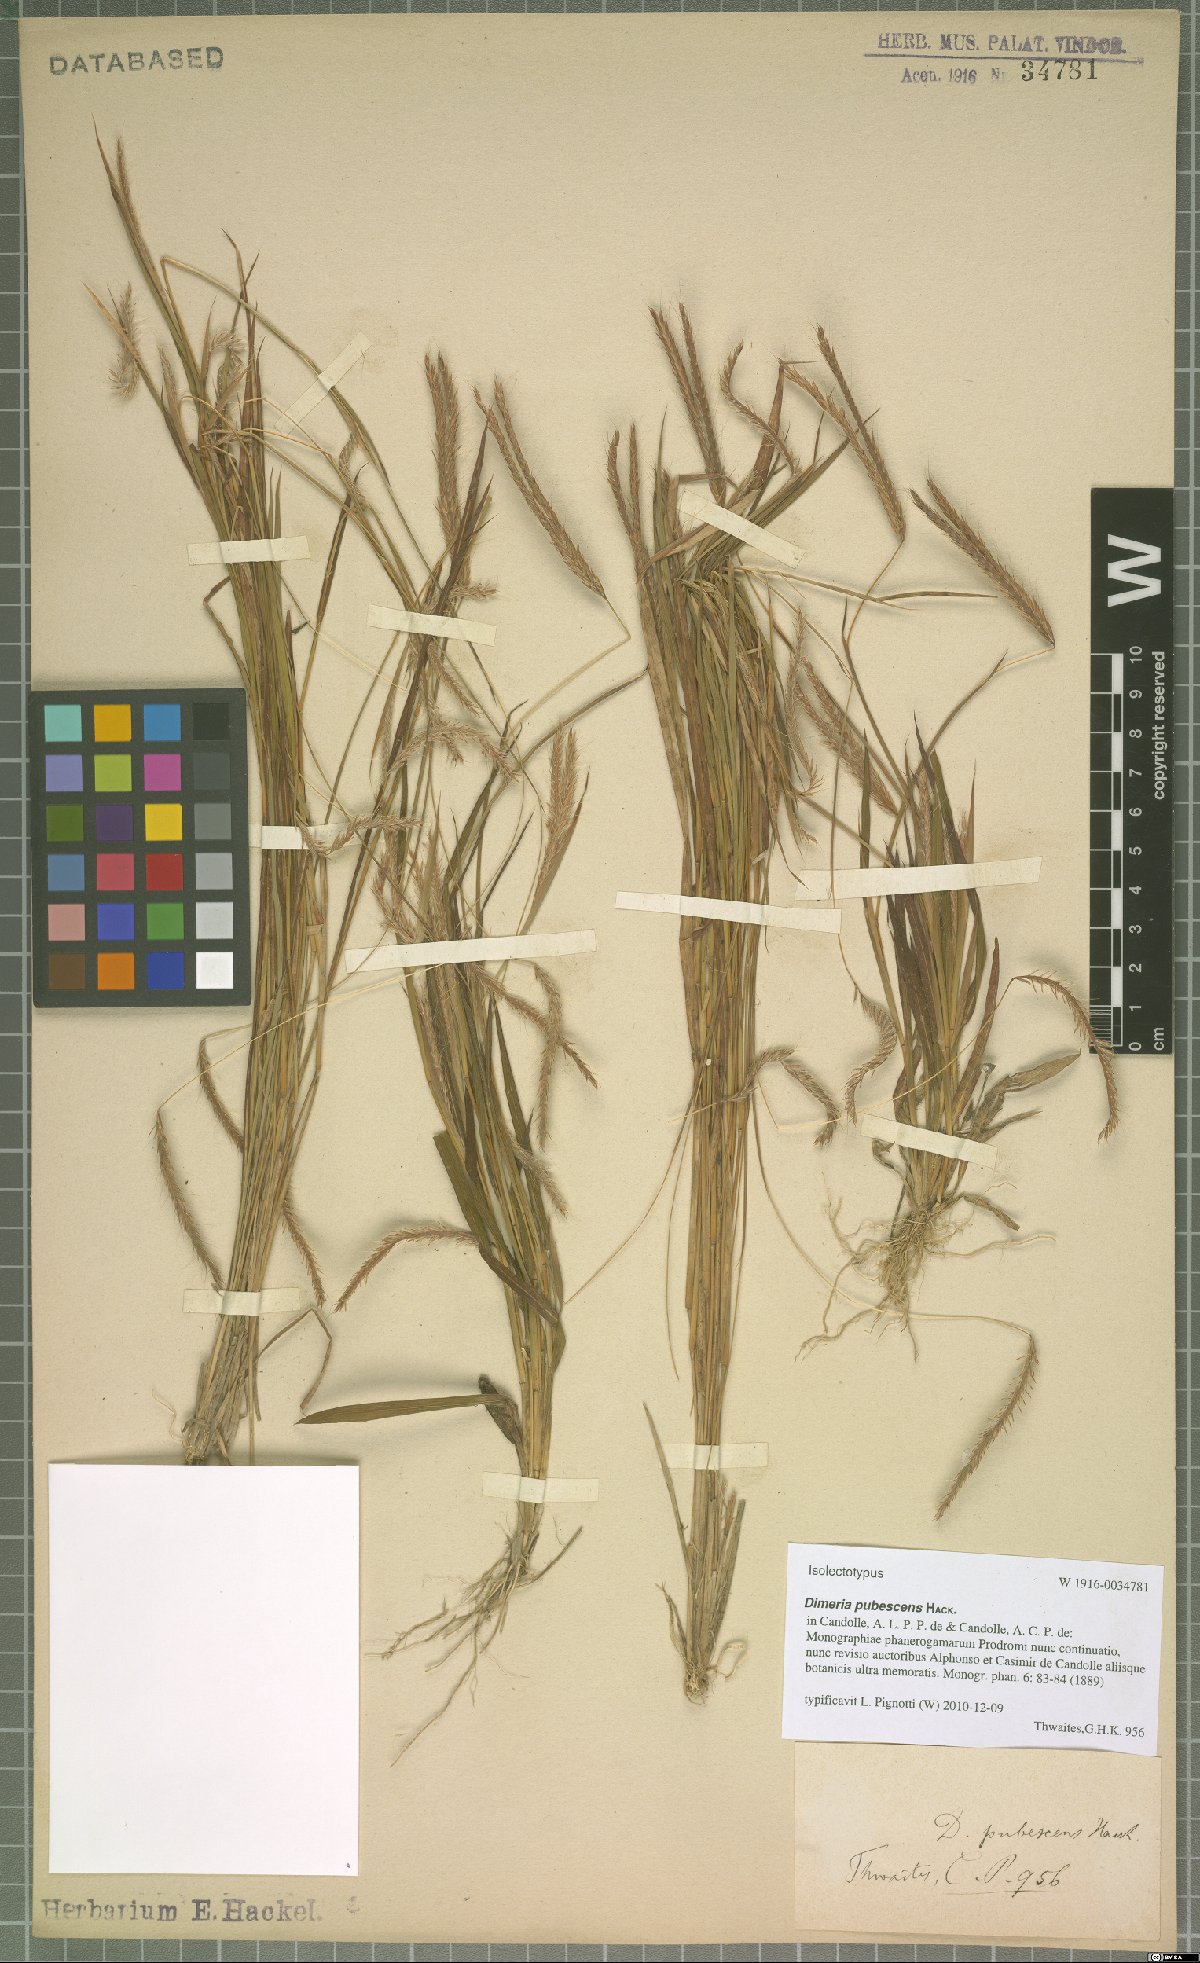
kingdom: Plantae
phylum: Tracheophyta
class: Liliopsida
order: Poales
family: Poaceae
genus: Dimeria
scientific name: Dimeria pubescens
